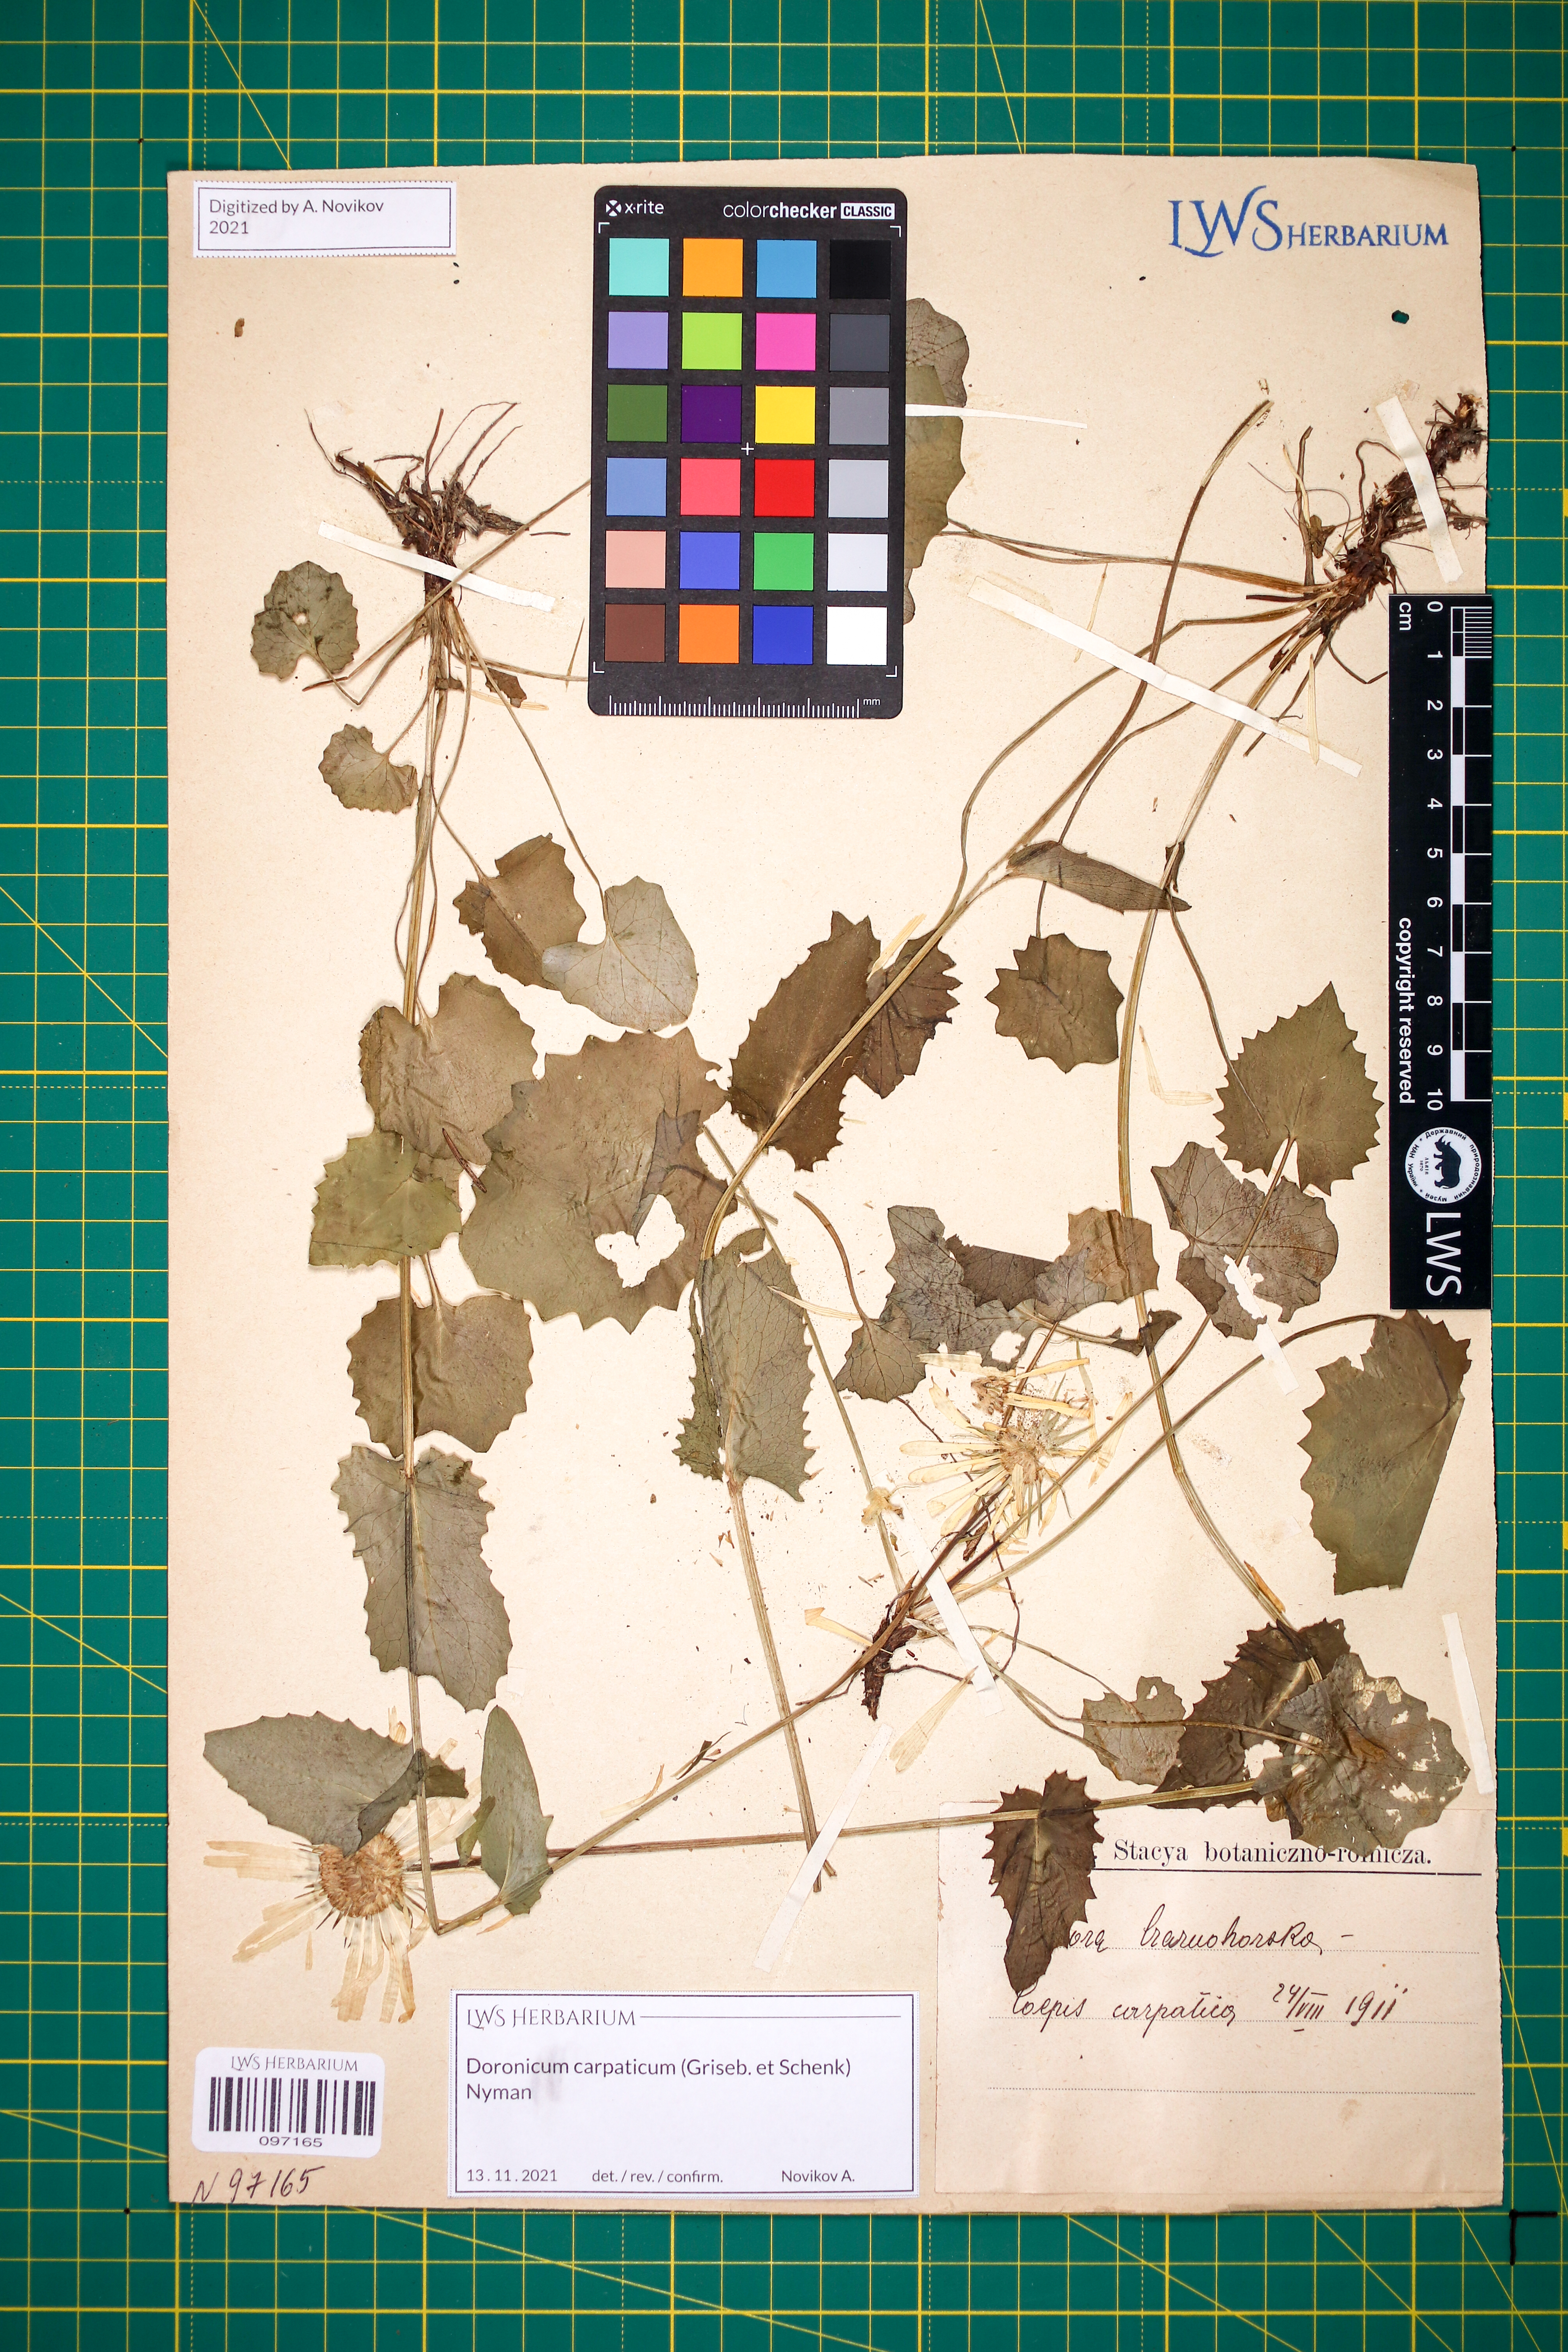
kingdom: Plantae
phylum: Tracheophyta
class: Magnoliopsida
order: Asterales
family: Asteraceae
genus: Doronicum
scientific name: Doronicum carpaticum
